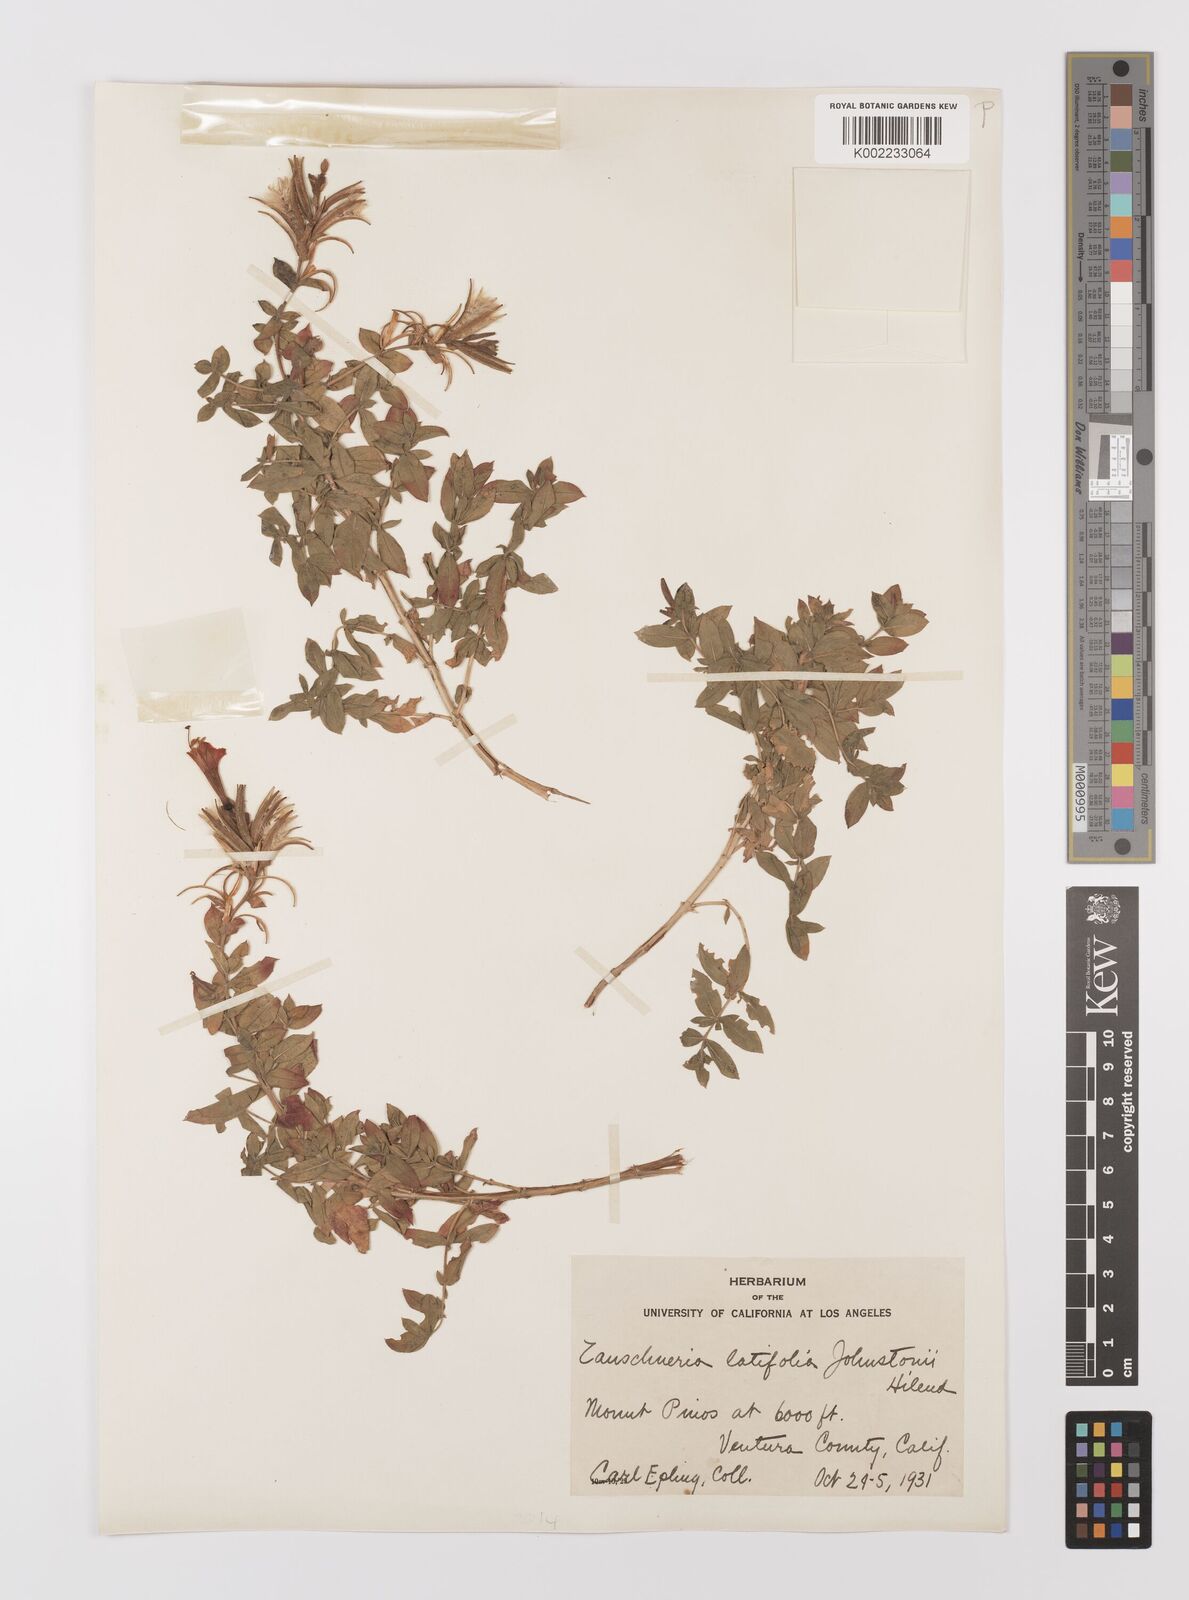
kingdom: Plantae
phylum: Tracheophyta
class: Magnoliopsida
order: Myrtales
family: Onagraceae
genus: Epilobium
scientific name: Epilobium
